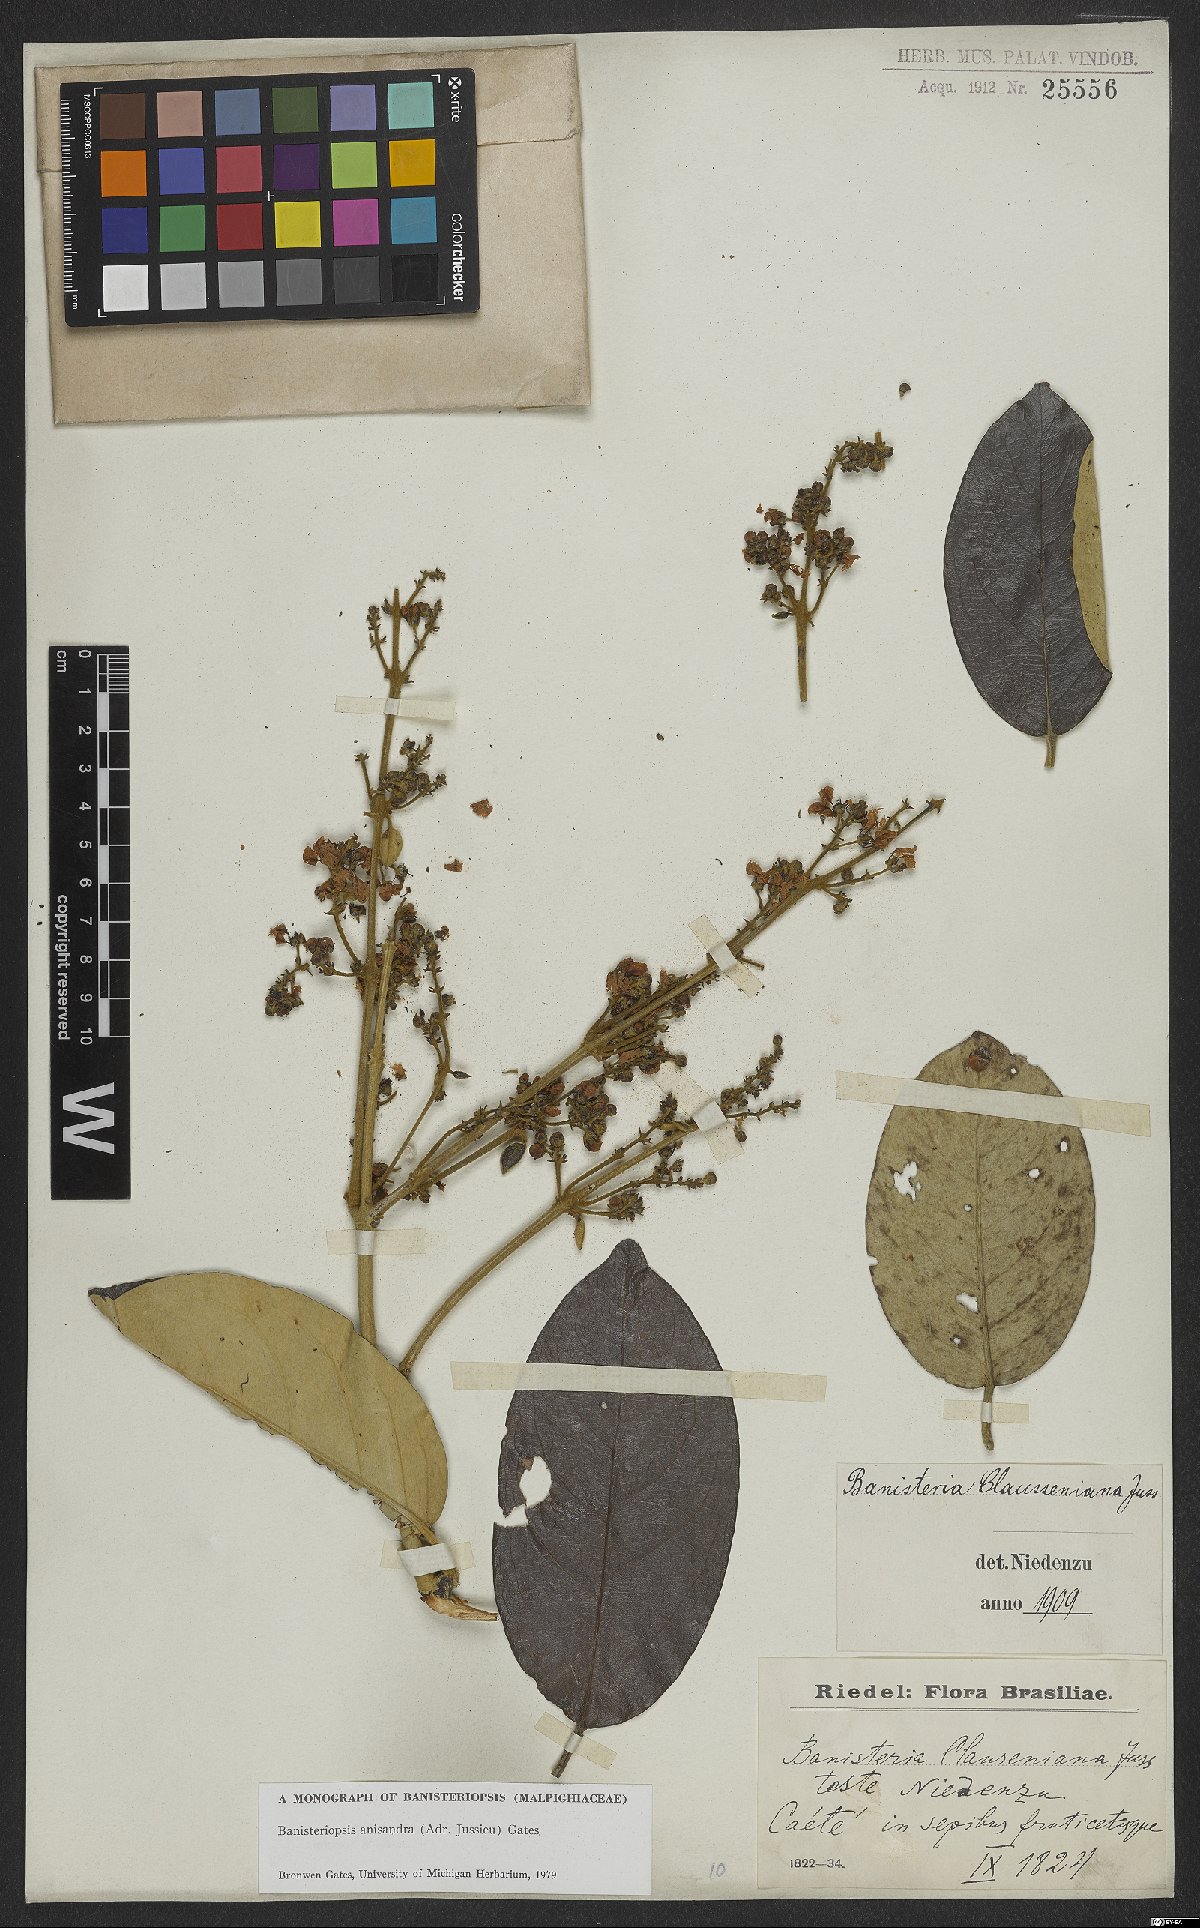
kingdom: Plantae
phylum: Tracheophyta
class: Magnoliopsida
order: Malpighiales
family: Malpighiaceae
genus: Banisteriopsis
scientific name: Banisteriopsis anisandra
